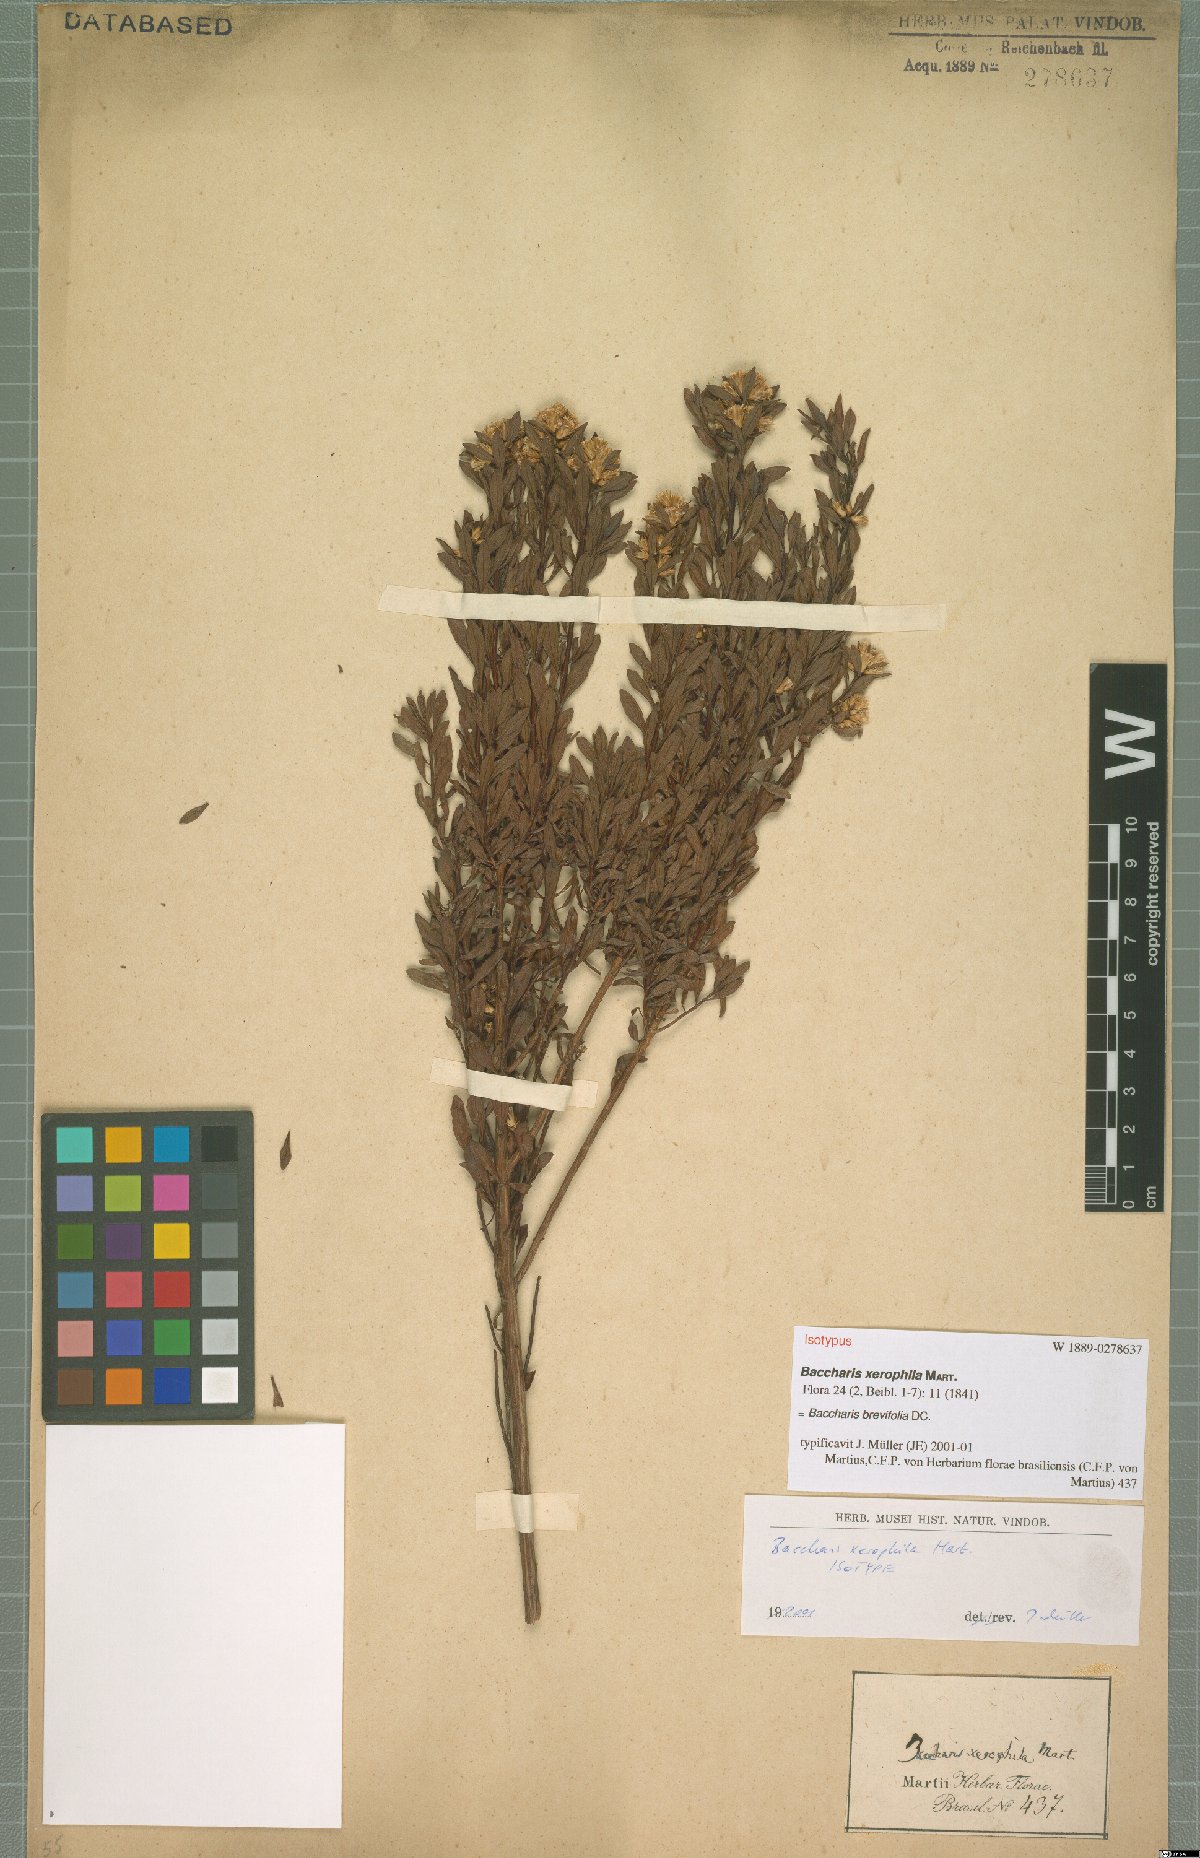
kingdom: Plantae
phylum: Tracheophyta
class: Magnoliopsida
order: Asterales
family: Asteraceae
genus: Baccharis
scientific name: Baccharis brevifolia
